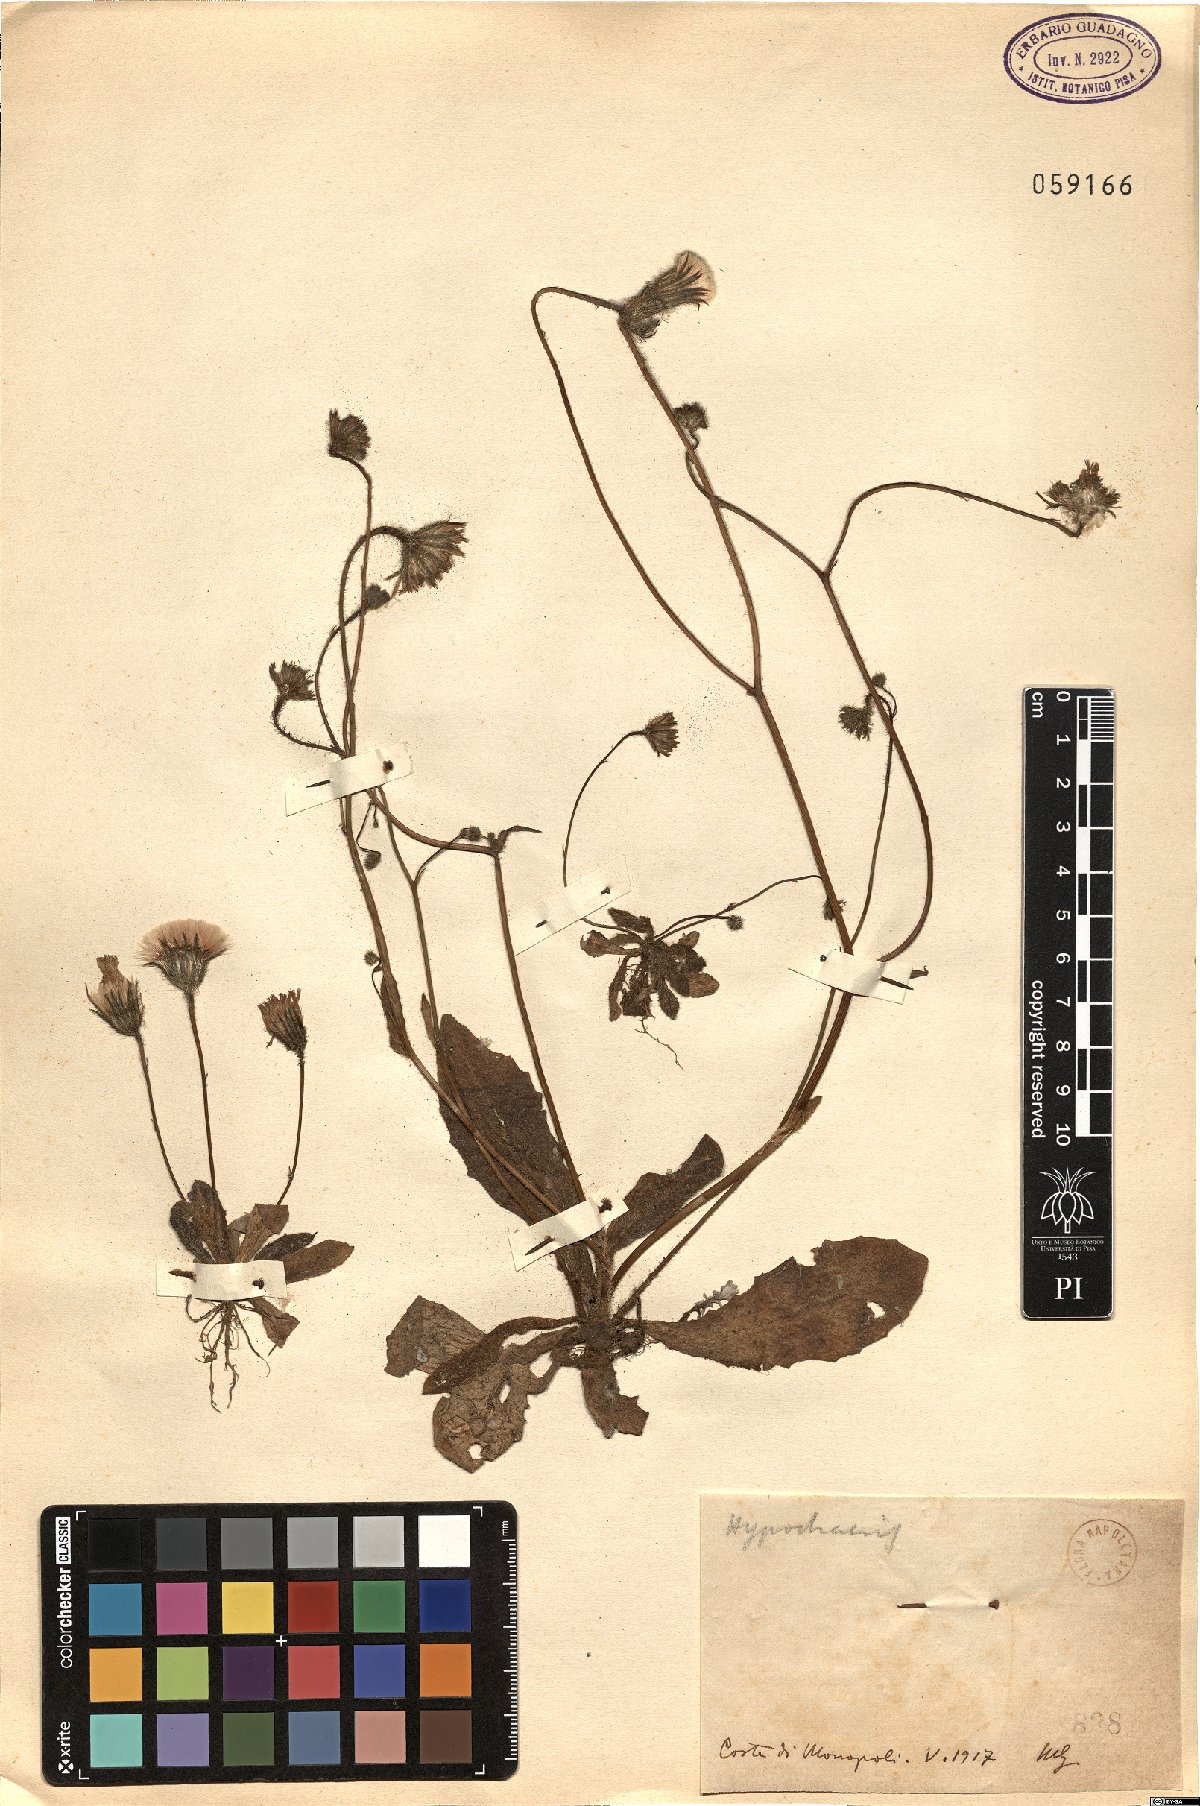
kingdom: Plantae
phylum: Tracheophyta
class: Magnoliopsida
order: Asterales
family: Asteraceae
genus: Achyrophorus
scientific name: Achyrophorus valdesii
